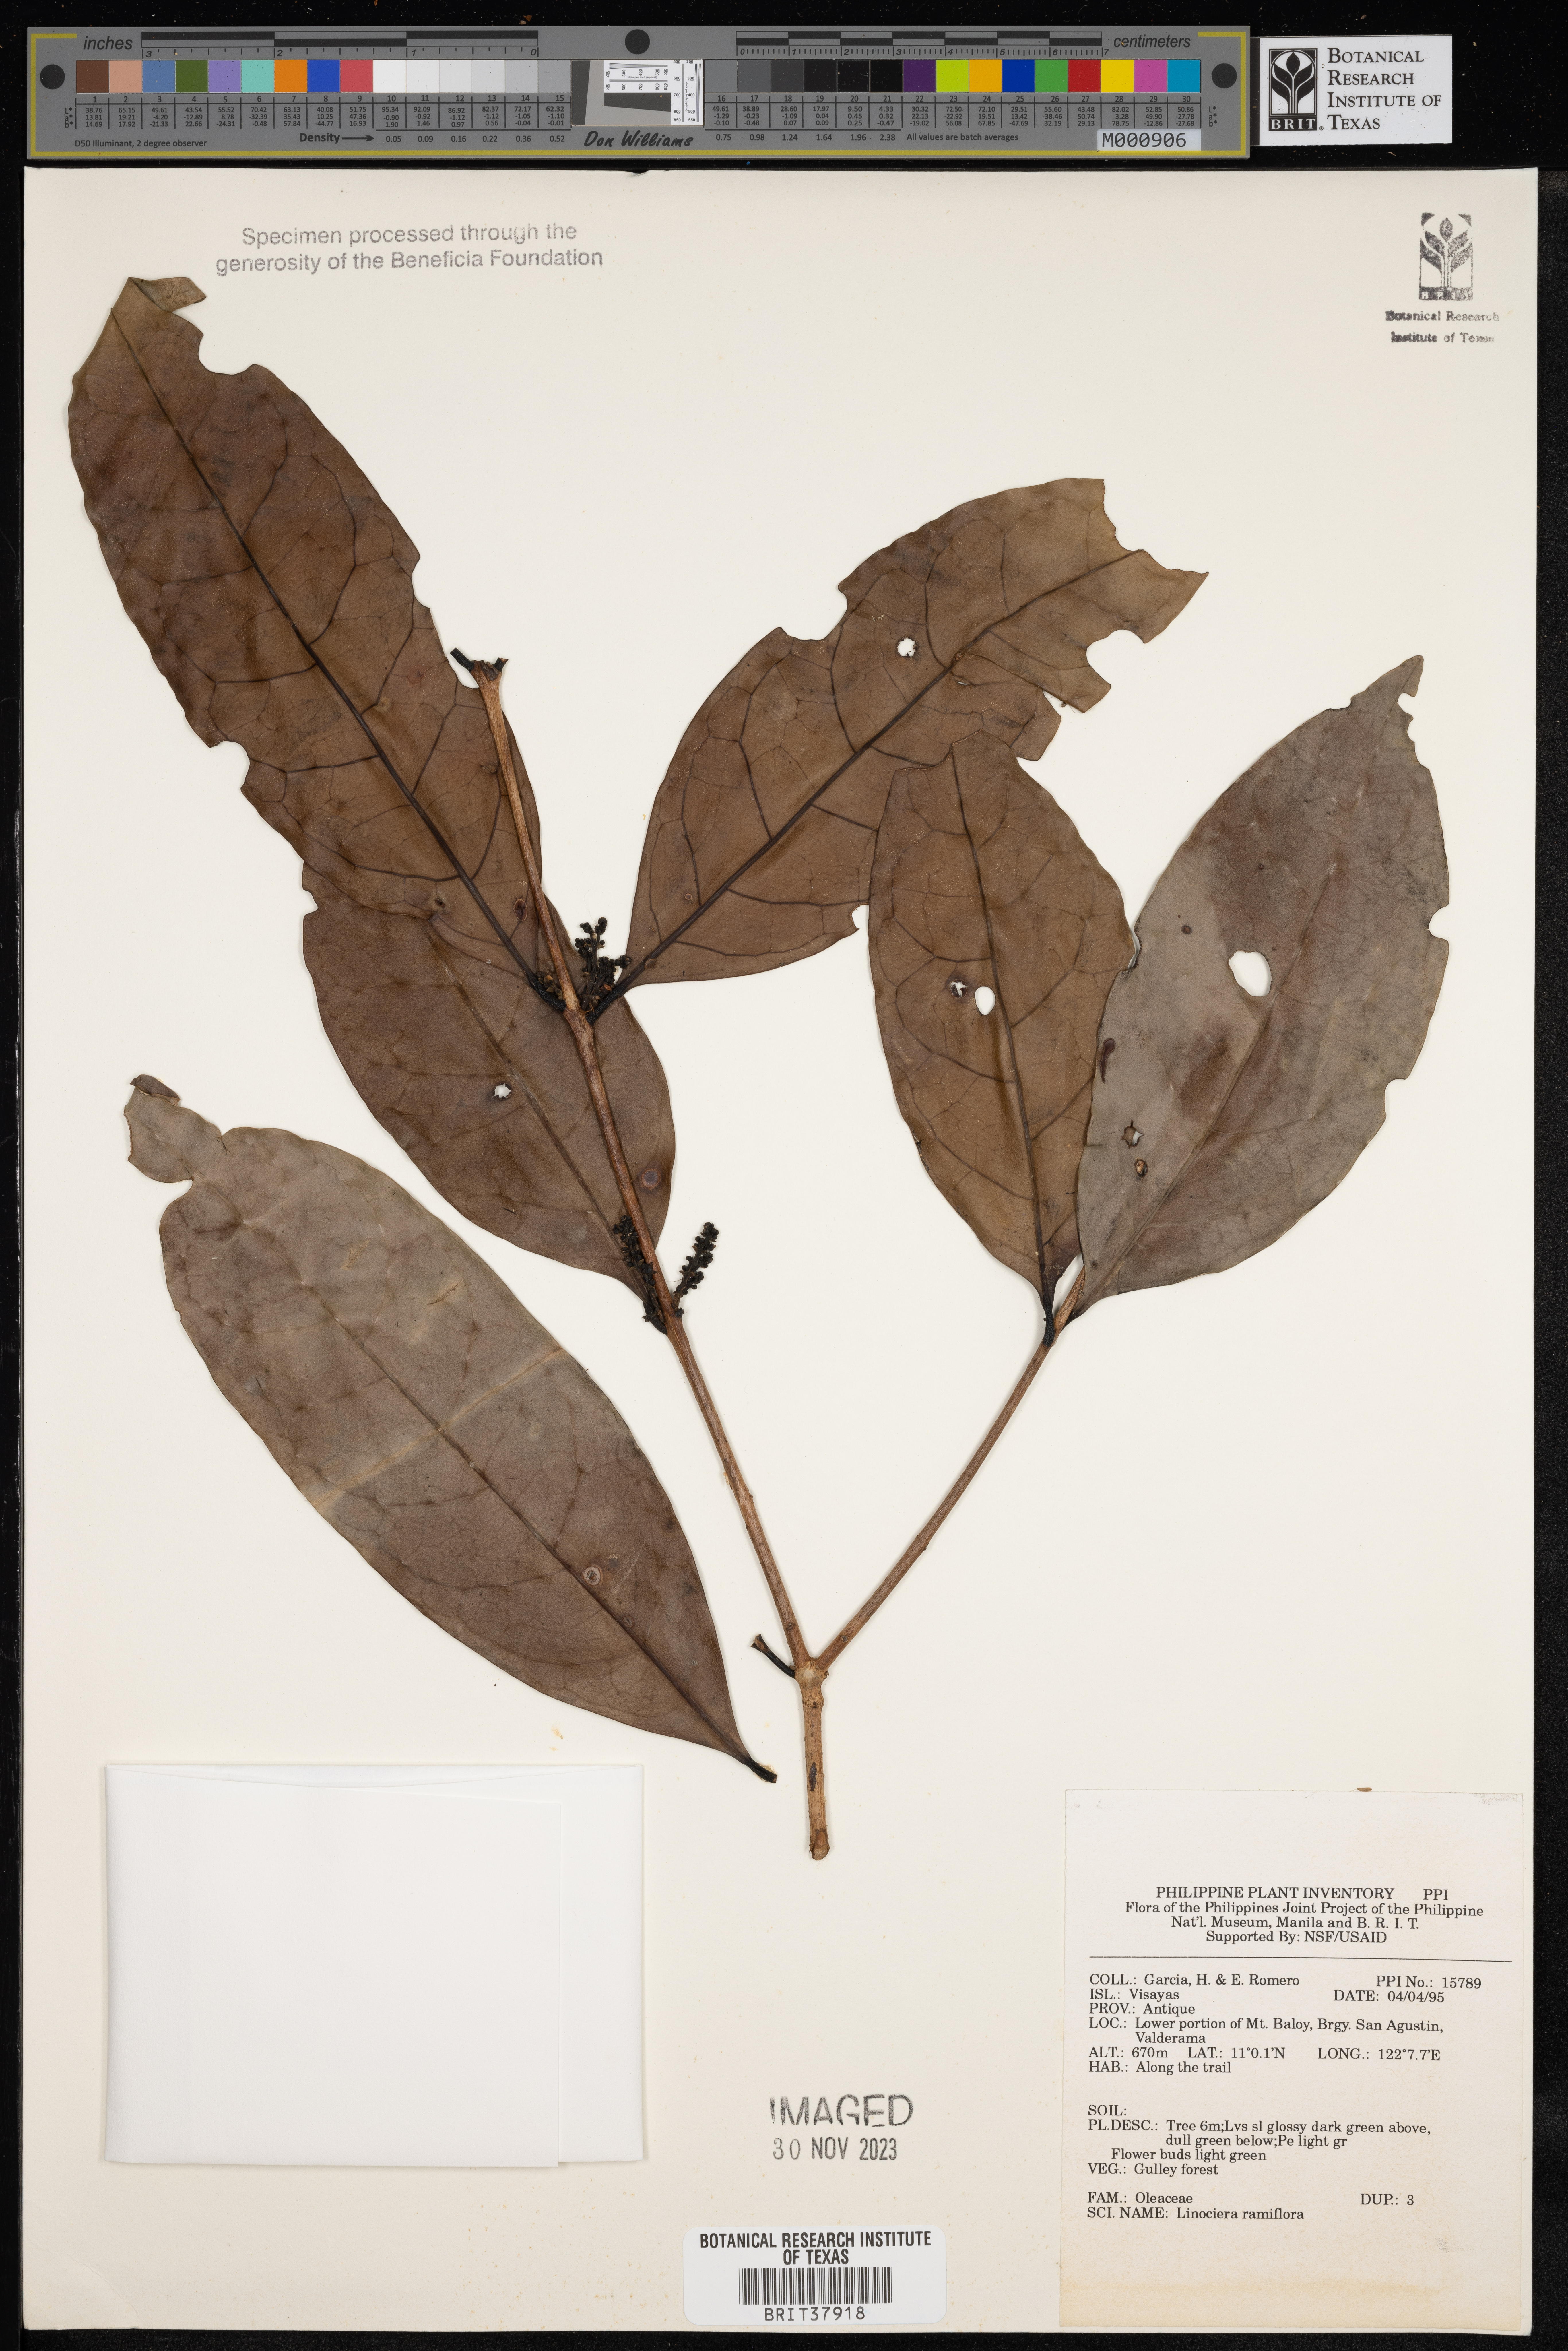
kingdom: Plantae
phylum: Tracheophyta
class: Magnoliopsida
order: Lamiales
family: Oleaceae
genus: Chionanthus
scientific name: Chionanthus ramiflorus
